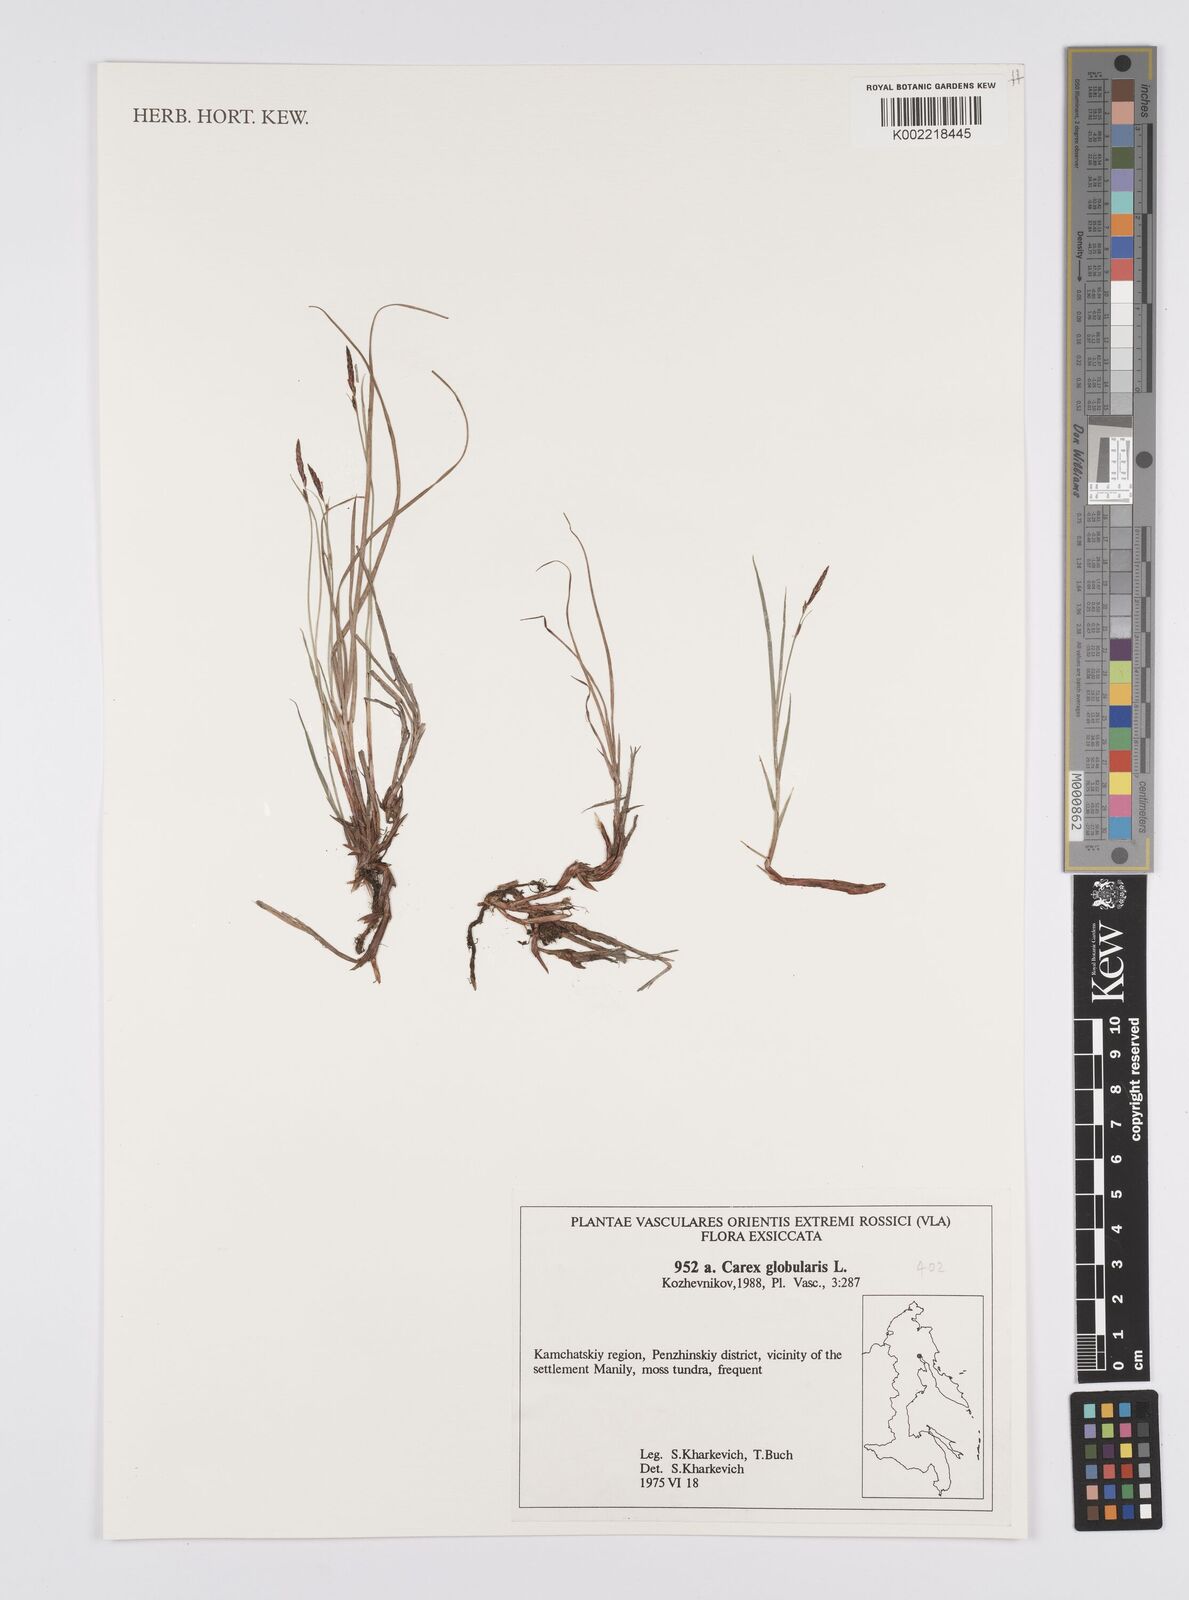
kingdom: Plantae
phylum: Tracheophyta
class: Liliopsida
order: Poales
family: Cyperaceae
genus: Carex
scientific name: Carex globularis
